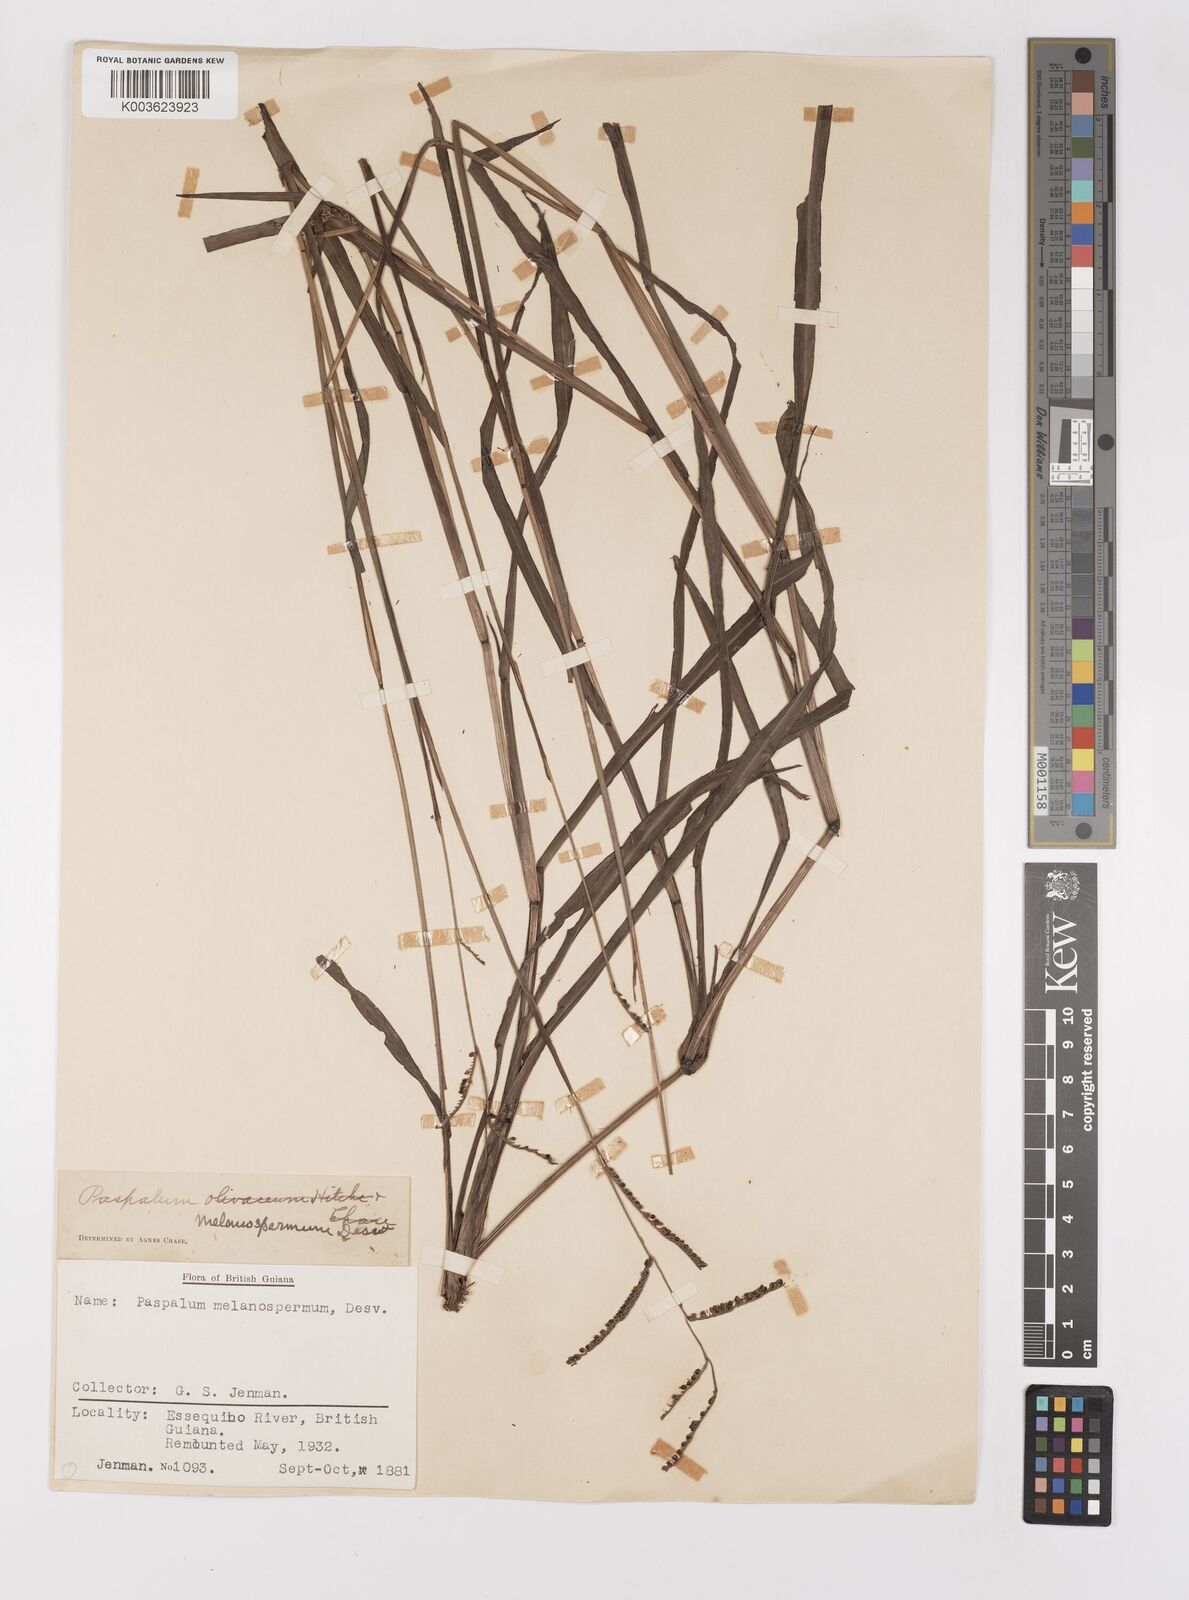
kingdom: Plantae
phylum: Tracheophyta
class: Liliopsida
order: Poales
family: Poaceae
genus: Paspalum
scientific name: Paspalum melanospermum
